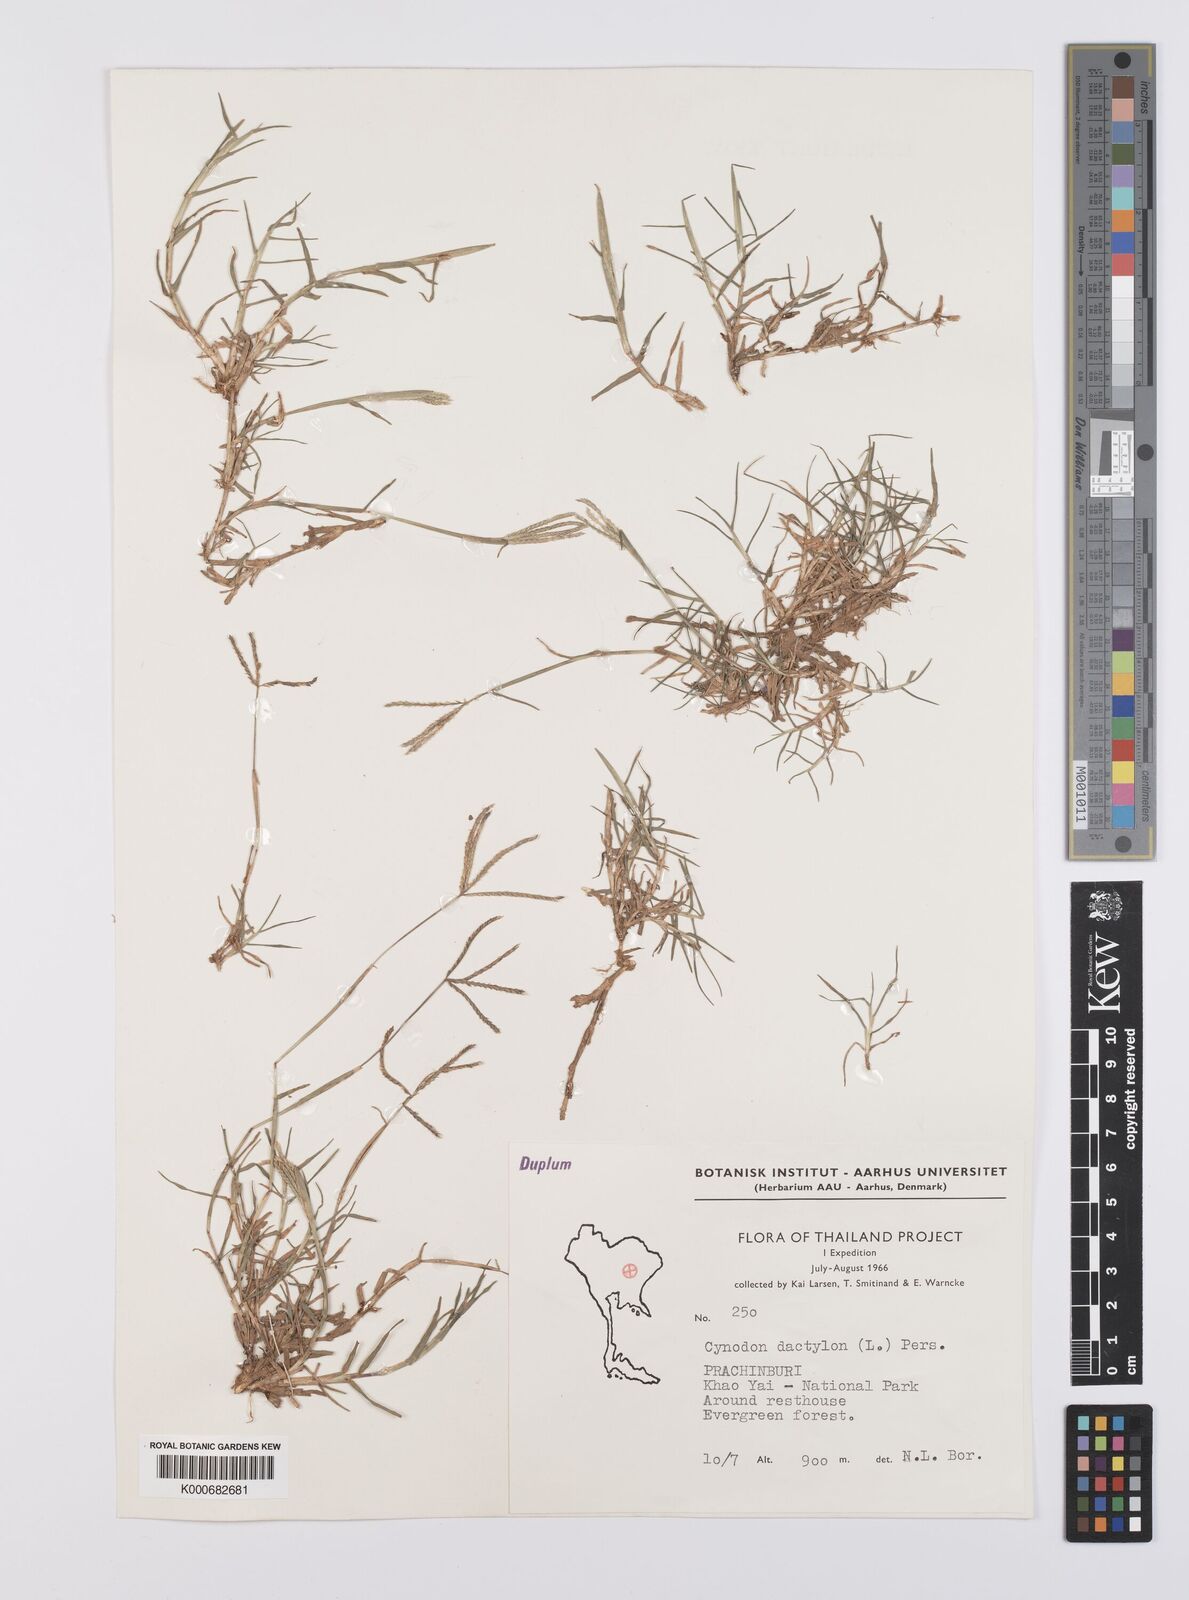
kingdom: Plantae
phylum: Tracheophyta
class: Liliopsida
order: Poales
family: Poaceae
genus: Cynodon
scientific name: Cynodon dactylon
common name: Bermuda grass
